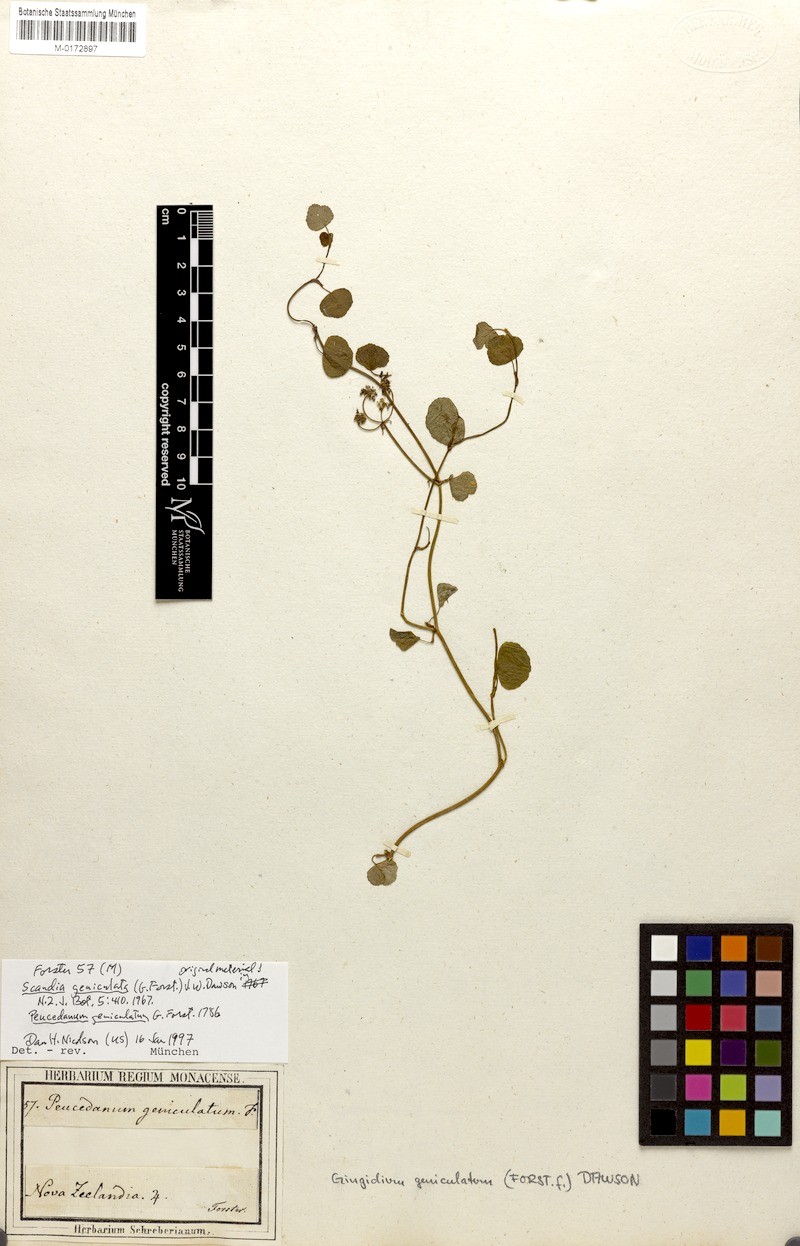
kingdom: Plantae
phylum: Tracheophyta
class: Magnoliopsida
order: Apiales
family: Apiaceae
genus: Scandia
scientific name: Scandia geniculata
